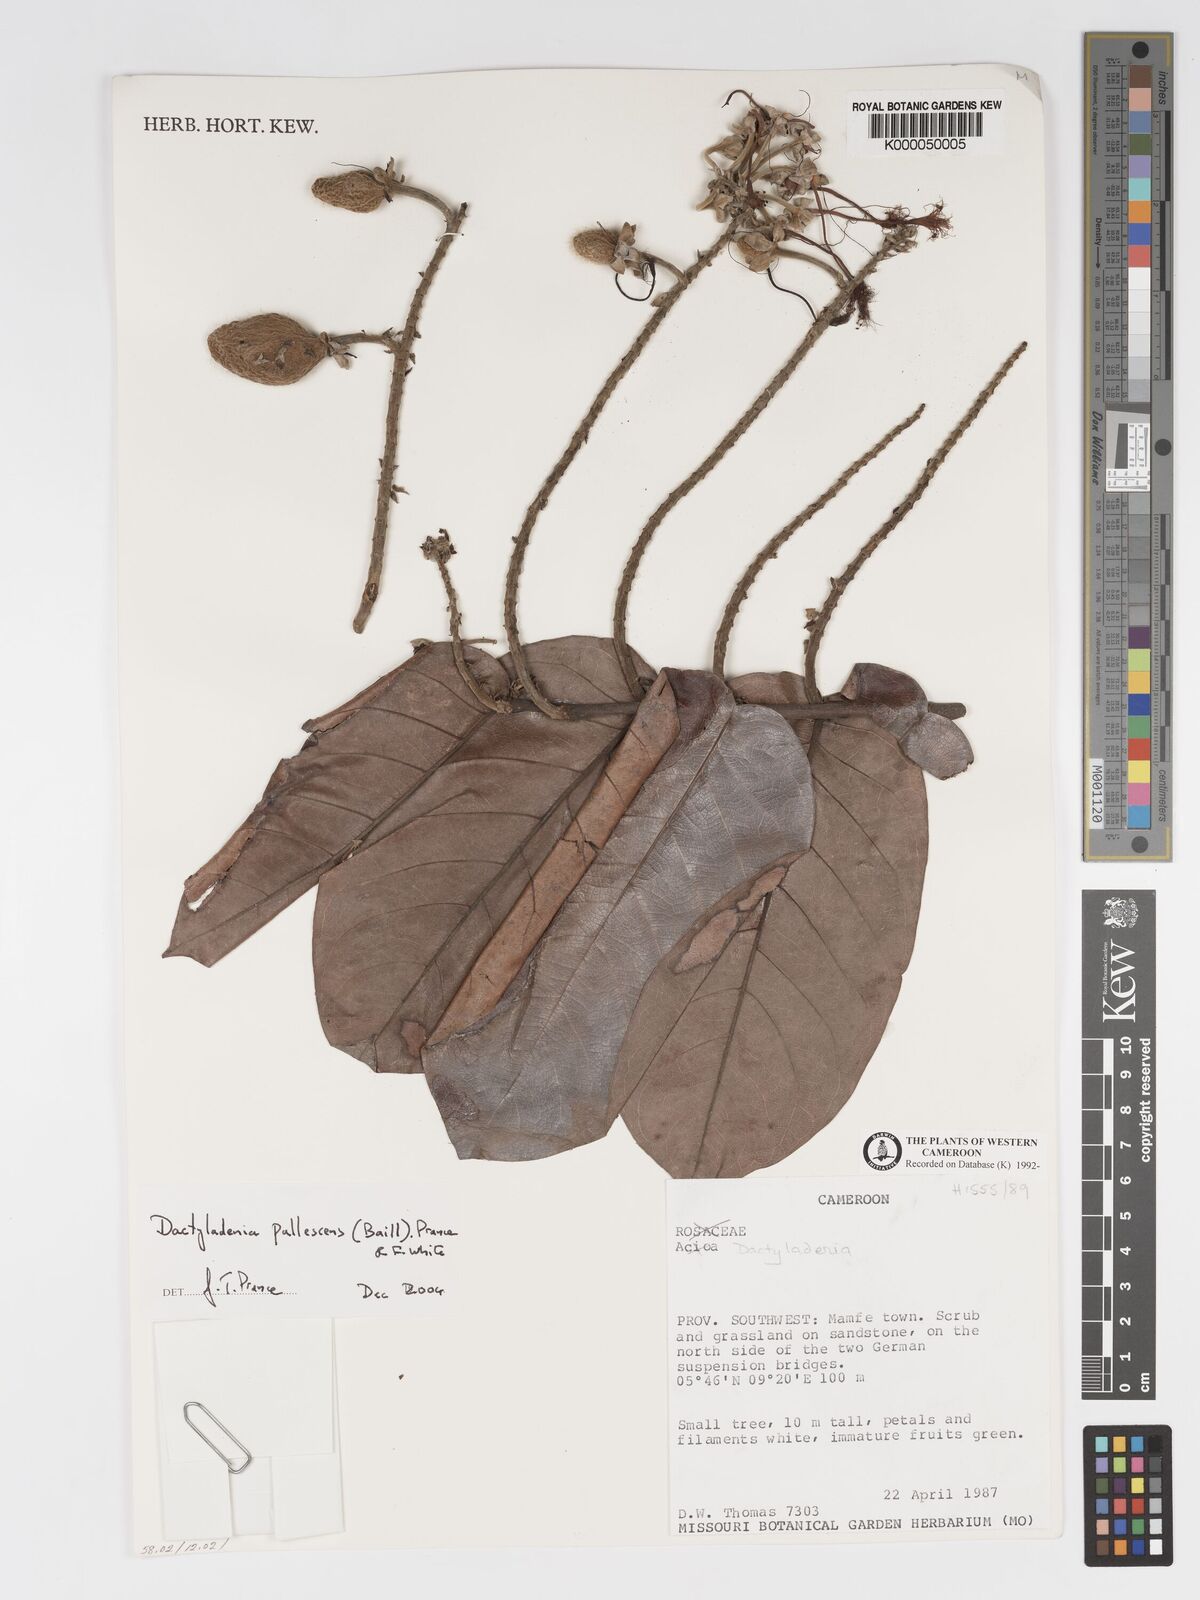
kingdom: Plantae
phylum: Tracheophyta
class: Magnoliopsida
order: Malpighiales
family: Chrysobalanaceae
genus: Dactyladenia
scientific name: Dactyladenia
